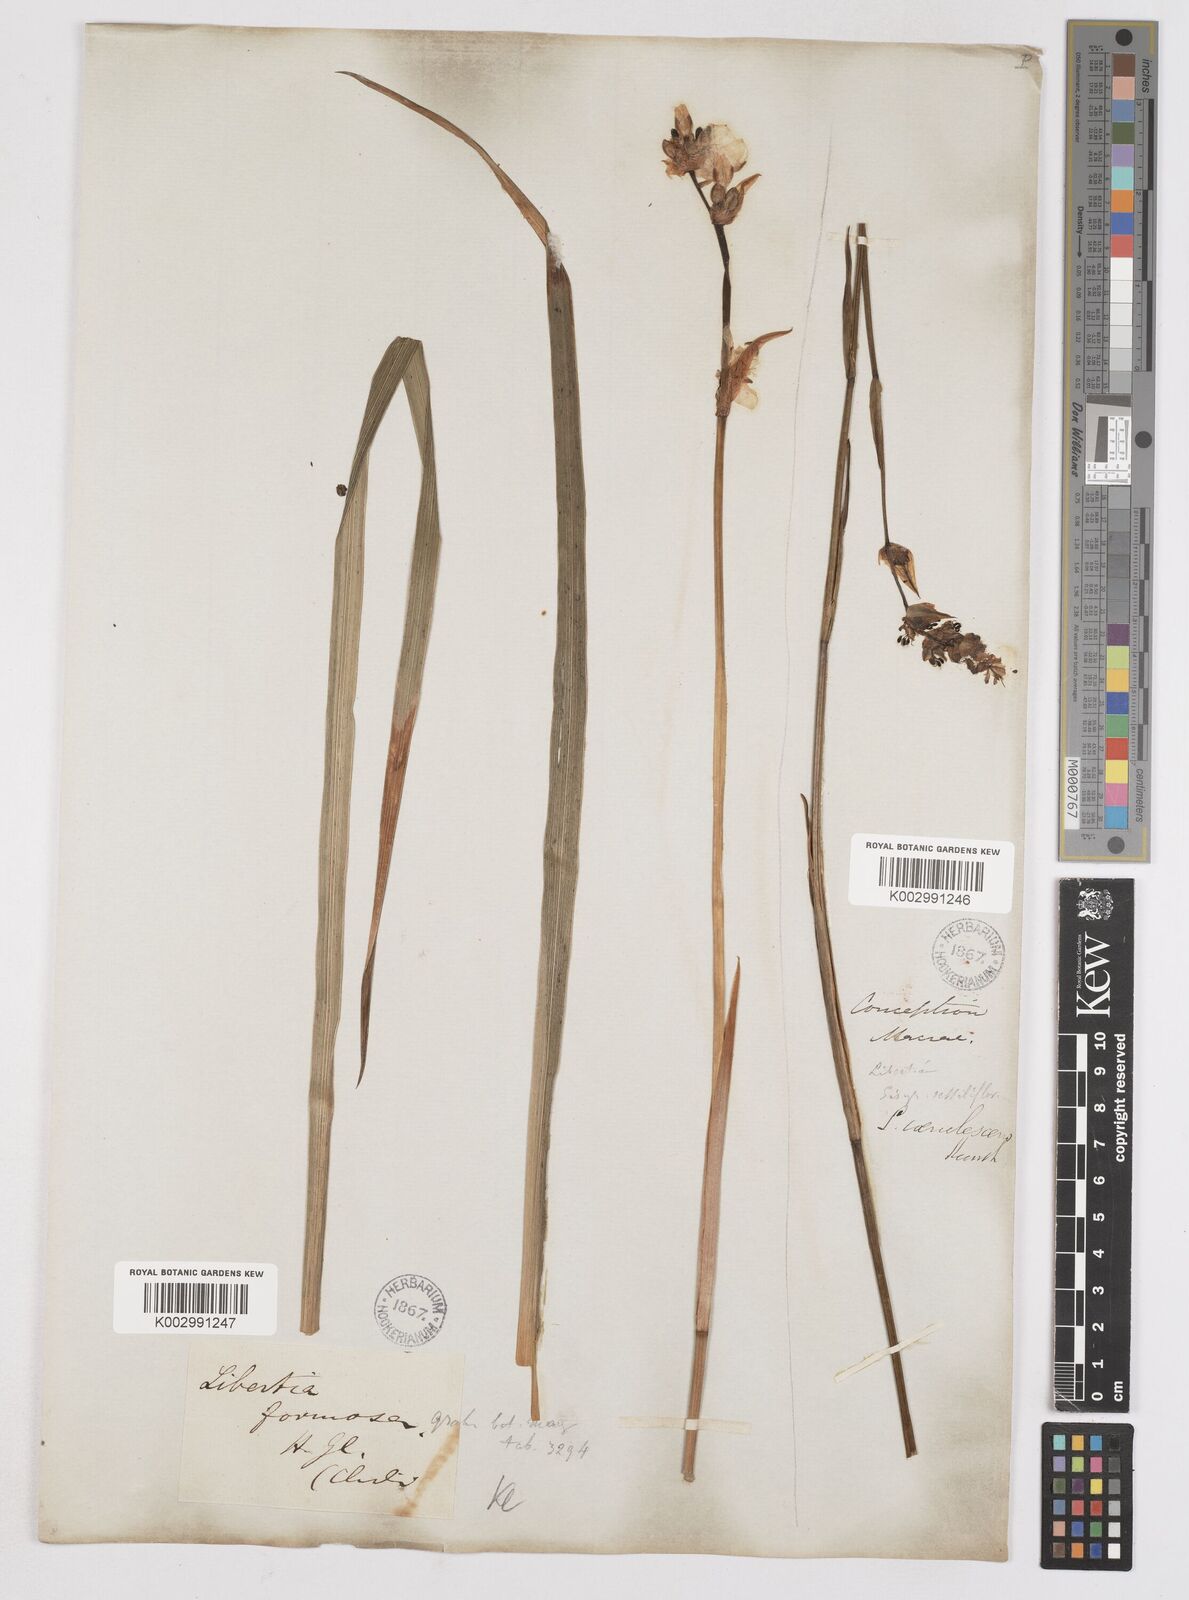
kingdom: Plantae
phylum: Tracheophyta
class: Liliopsida
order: Asparagales
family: Iridaceae
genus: Libertia
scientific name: Libertia chilensis
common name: Satin flower
